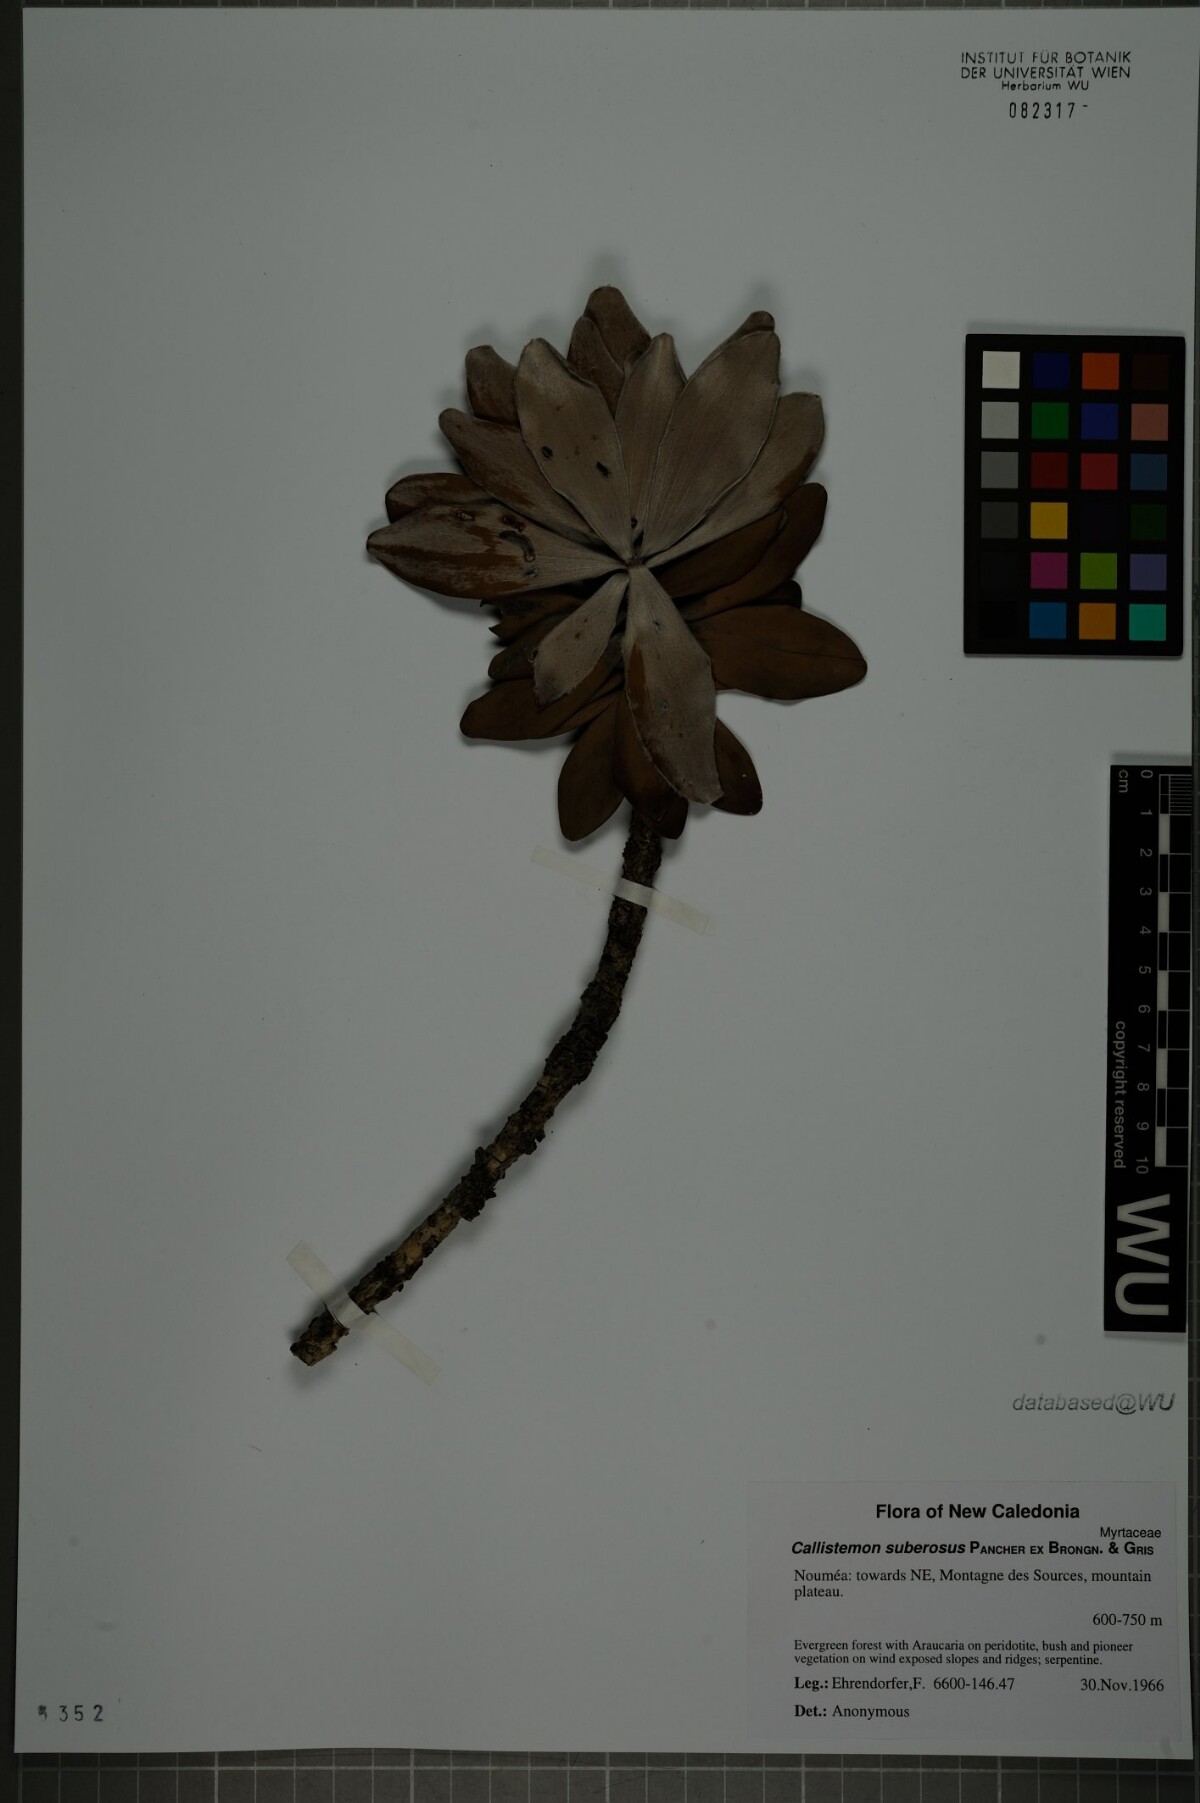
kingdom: Plantae
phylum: Tracheophyta
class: Magnoliopsida
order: Myrtales
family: Myrtaceae
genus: Melaleuca
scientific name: Melaleuca dawsonii
